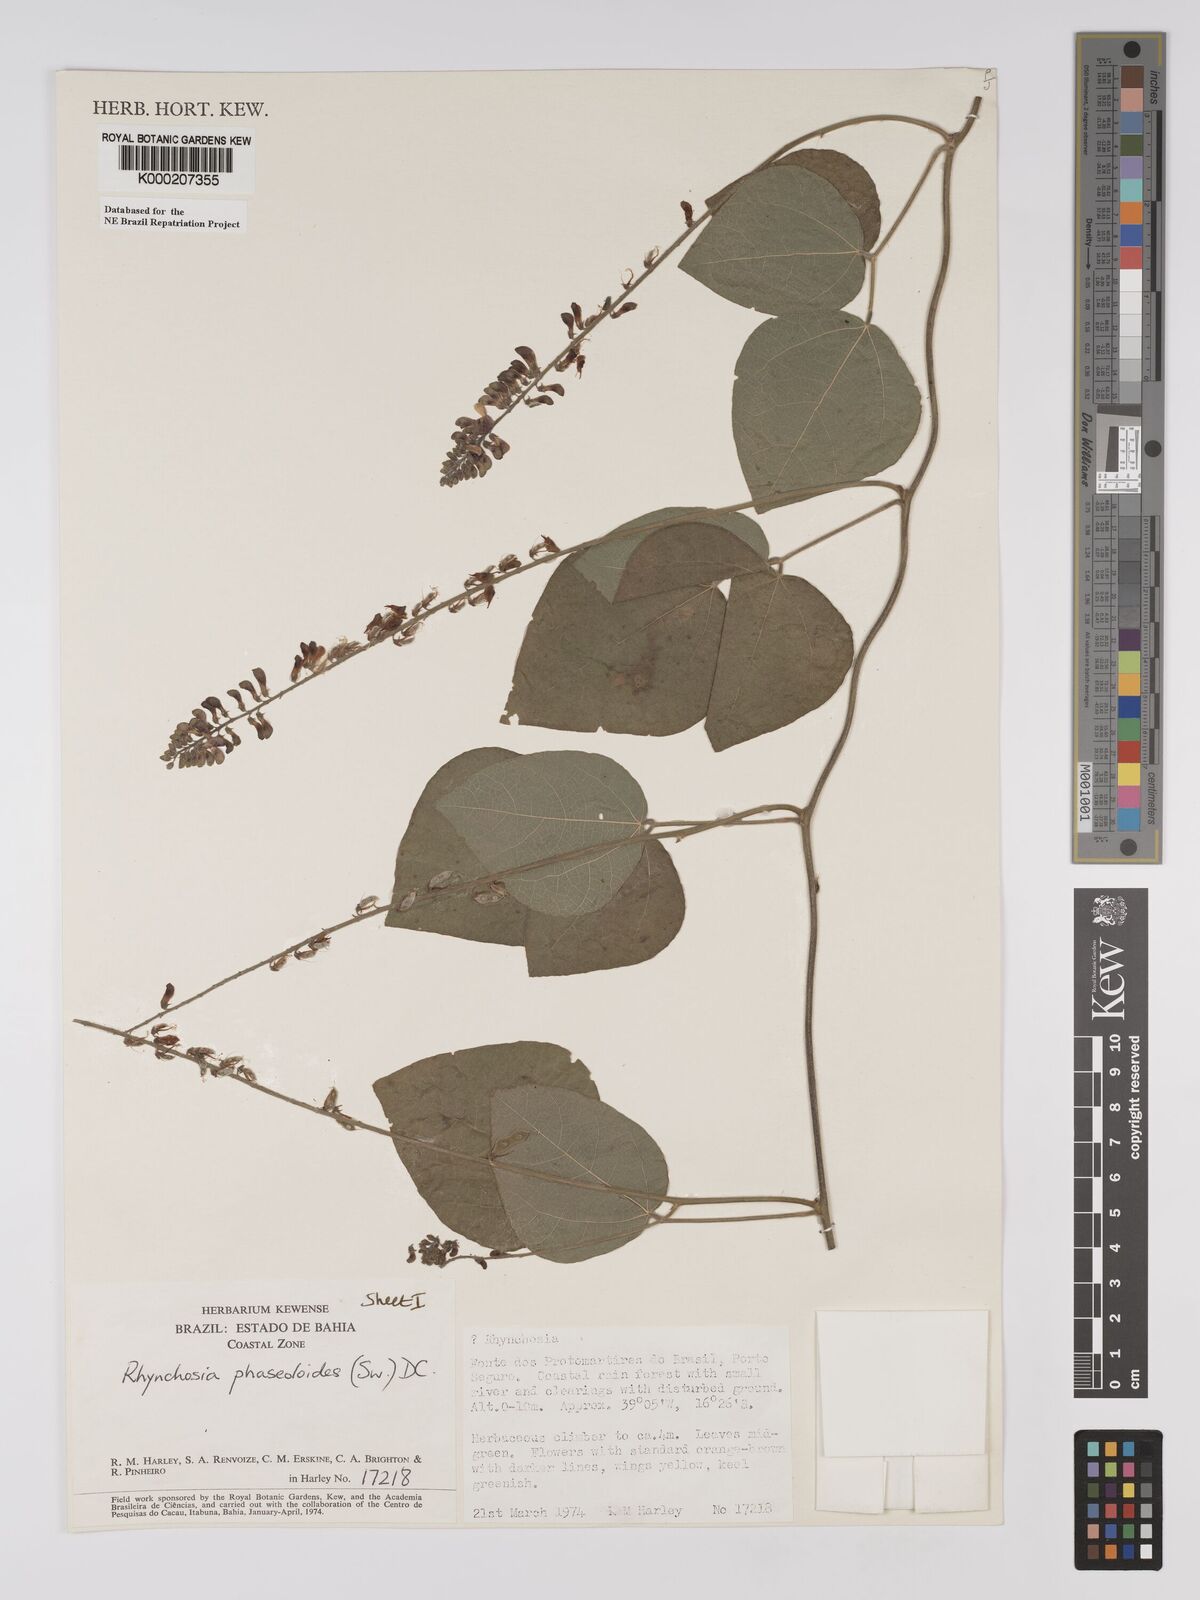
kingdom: Plantae
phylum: Tracheophyta
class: Magnoliopsida
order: Fabales
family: Fabaceae
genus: Rhynchosia
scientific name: Rhynchosia phaseoloides
